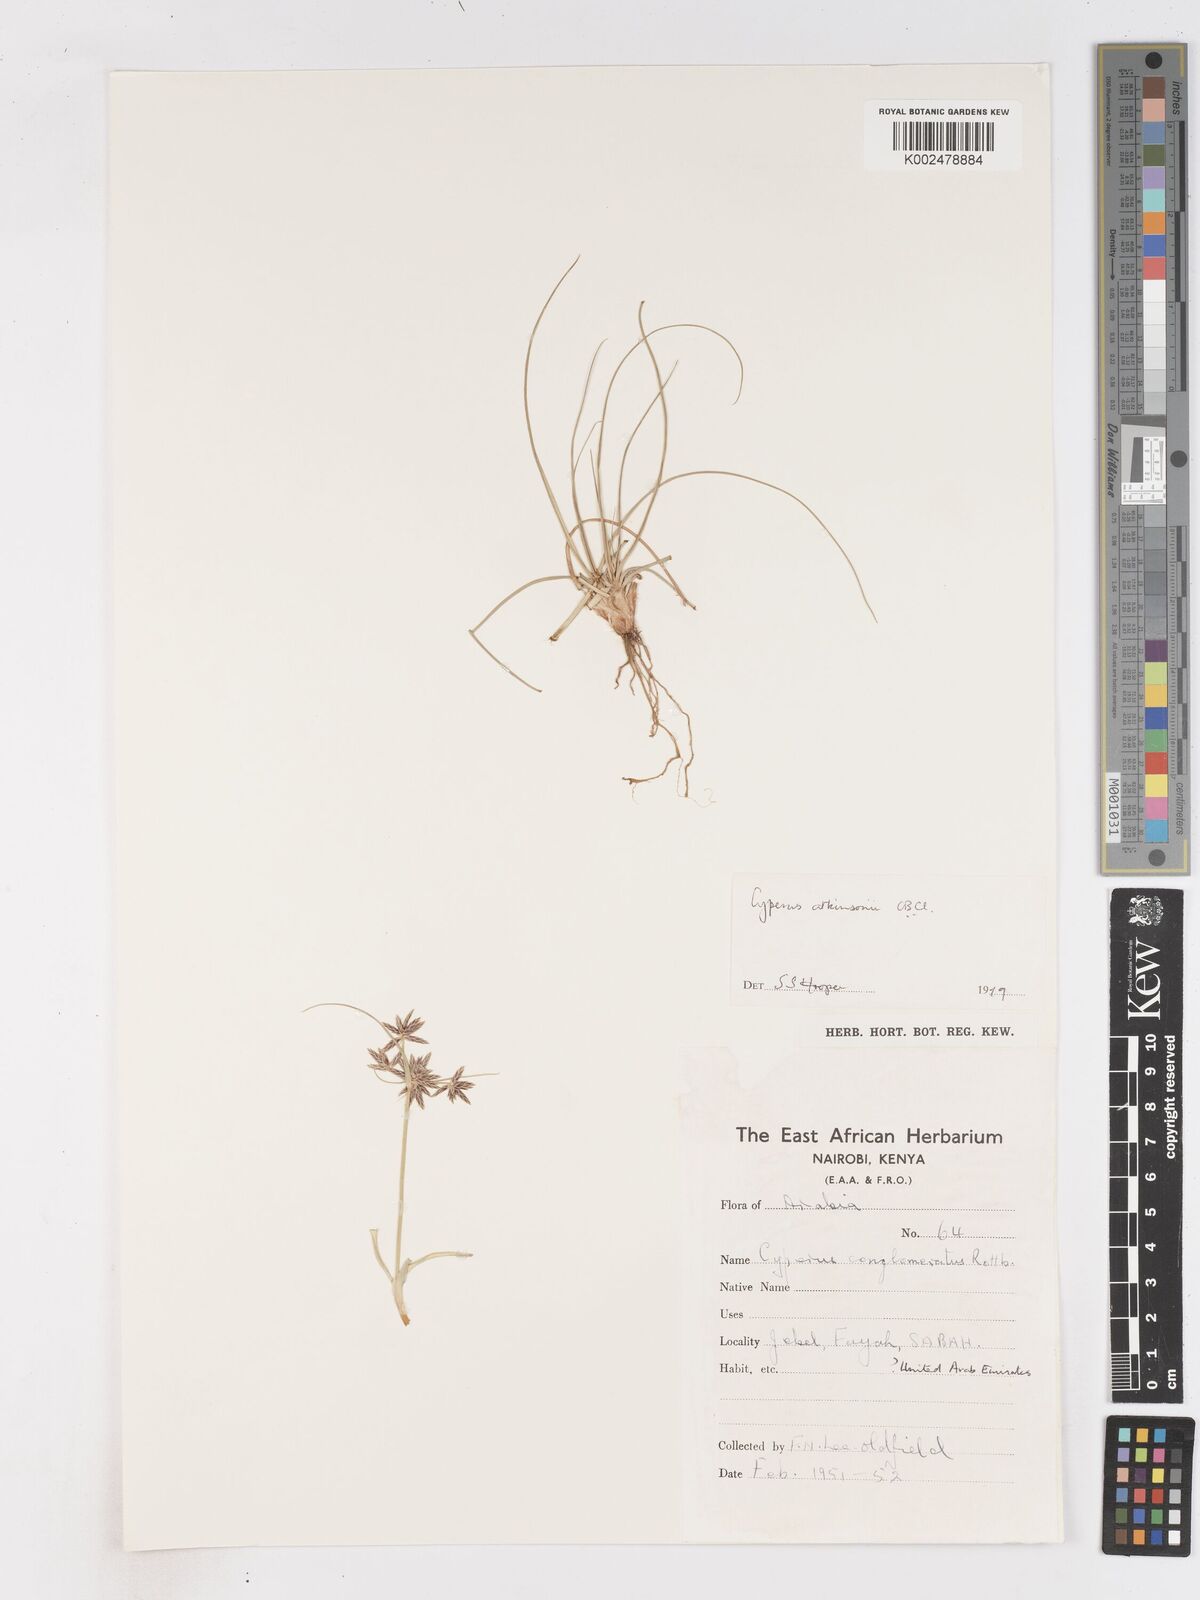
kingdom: Plantae
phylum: Tracheophyta
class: Liliopsida
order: Poales
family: Cyperaceae
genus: Cyperus
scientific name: Cyperus jeminicus
